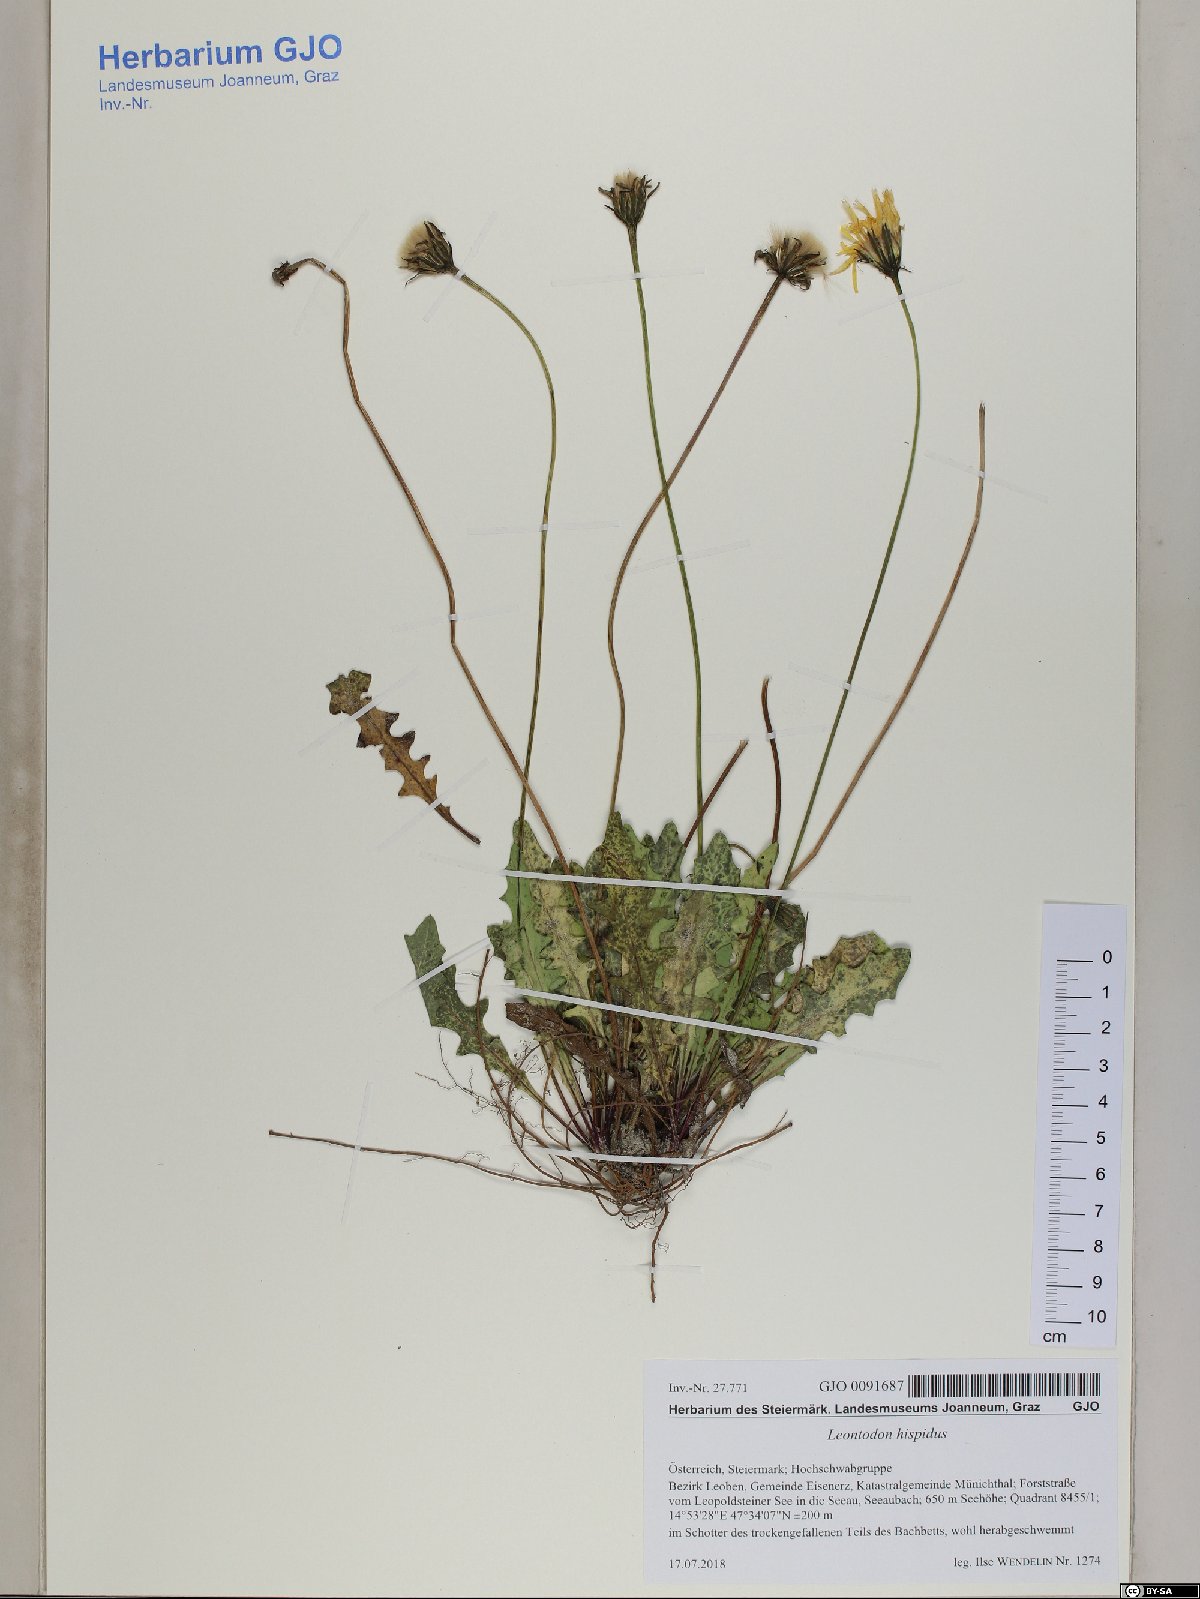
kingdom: Plantae
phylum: Tracheophyta
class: Magnoliopsida
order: Asterales
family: Asteraceae
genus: Leontodon
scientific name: Leontodon hispidus
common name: Rough hawkbit
